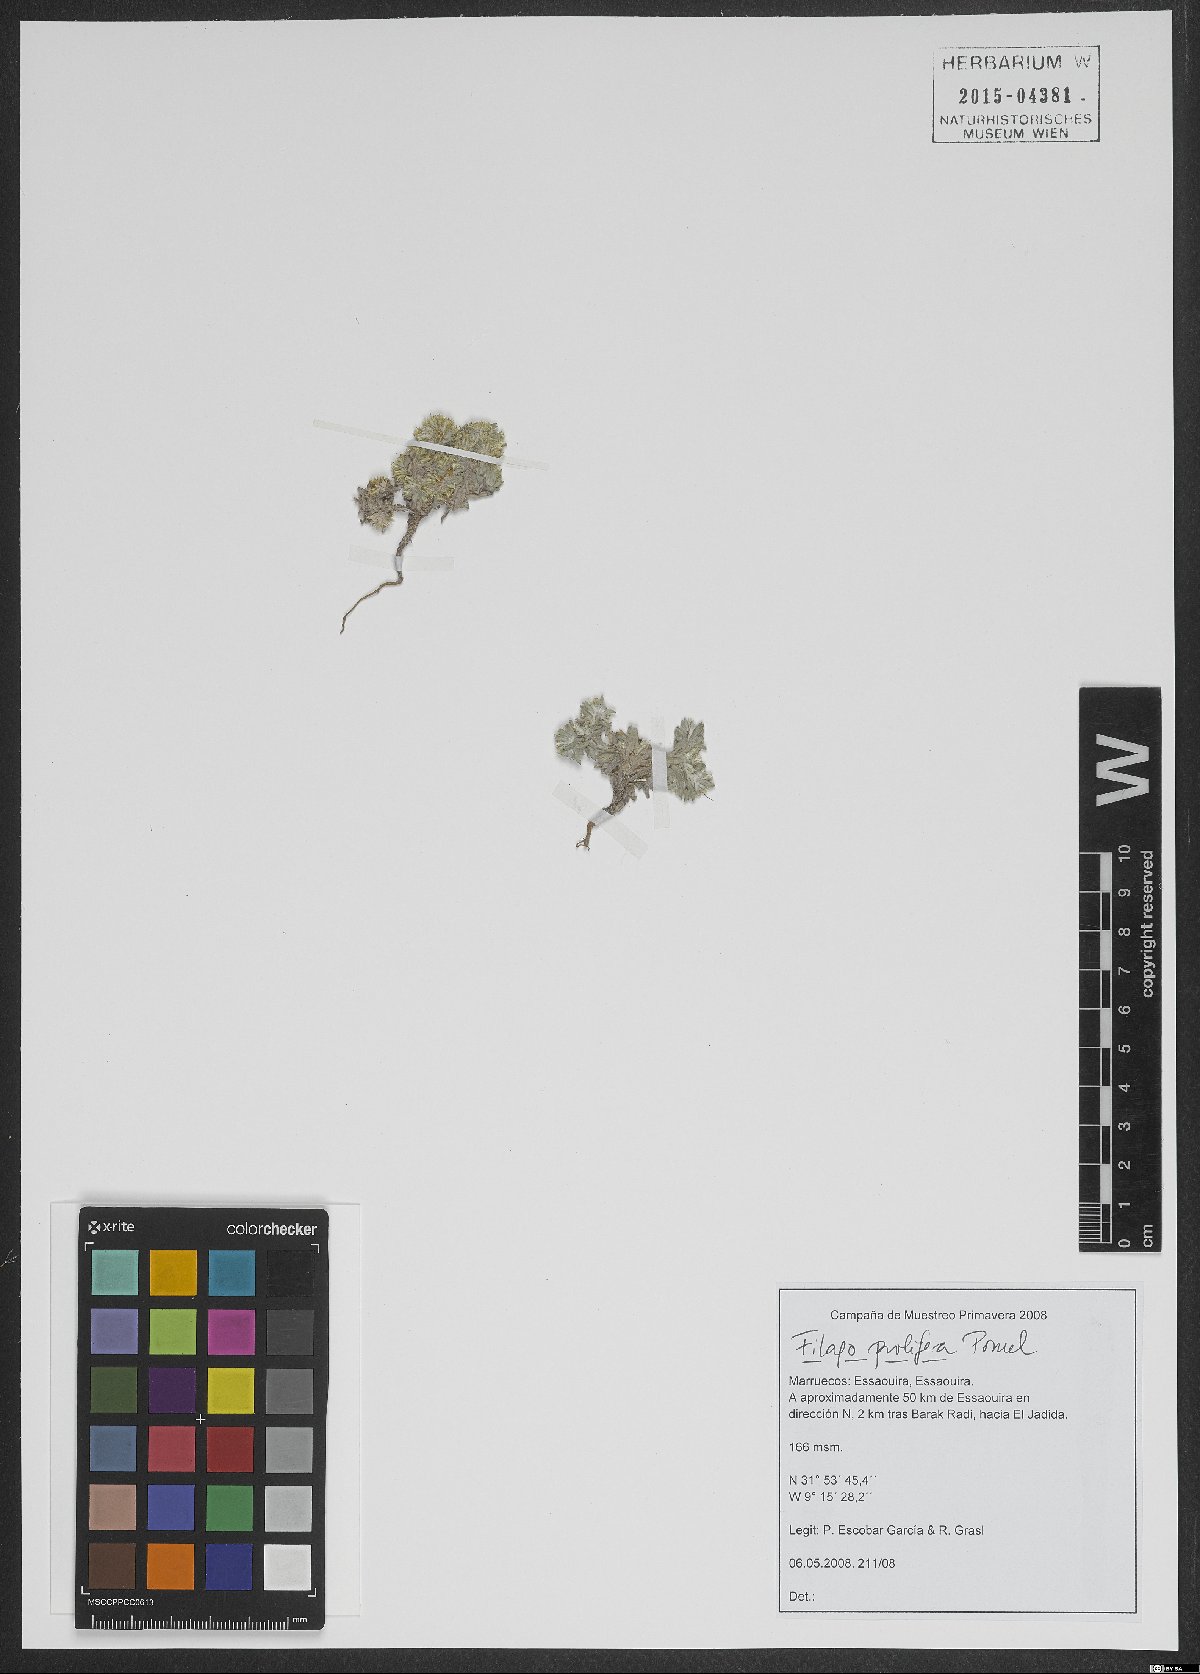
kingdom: Plantae
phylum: Tracheophyta
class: Magnoliopsida
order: Asterales
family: Asteraceae
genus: Filago
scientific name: Filago prolifera
